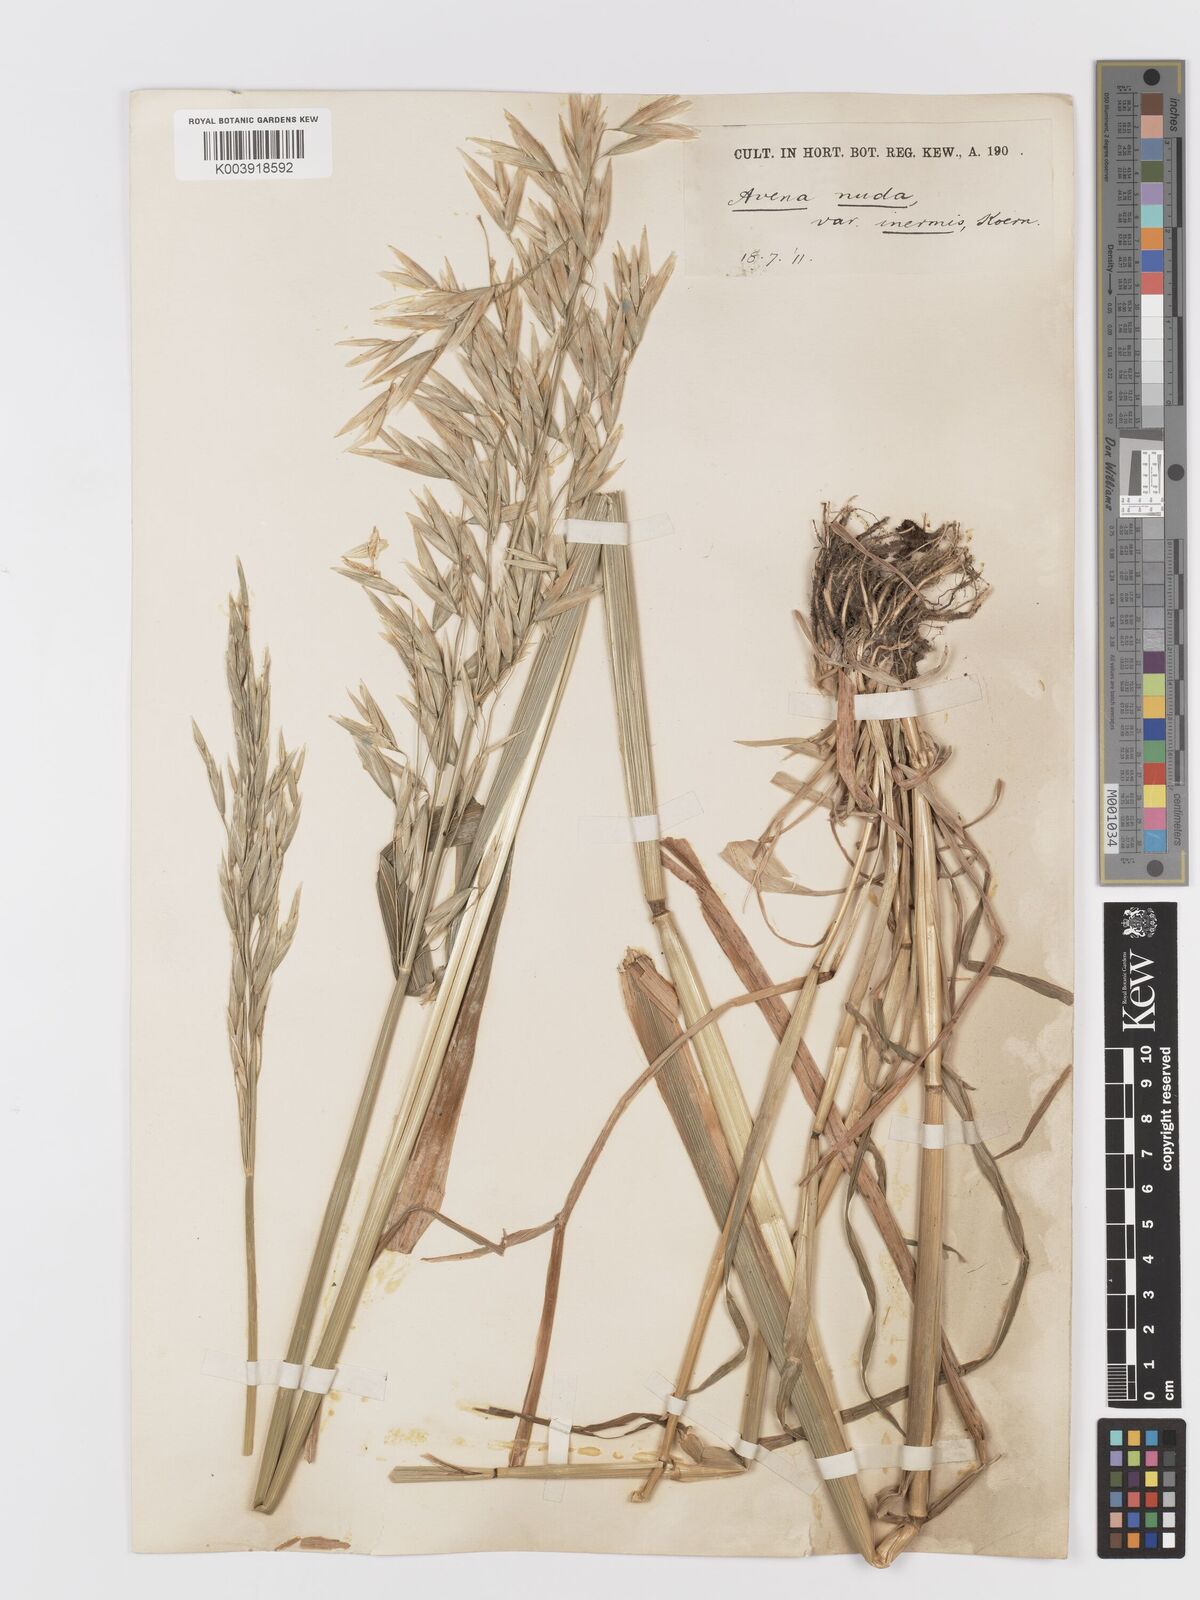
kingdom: Plantae
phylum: Tracheophyta
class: Liliopsida
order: Poales
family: Poaceae
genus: Avena
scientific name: Avena chinensis
